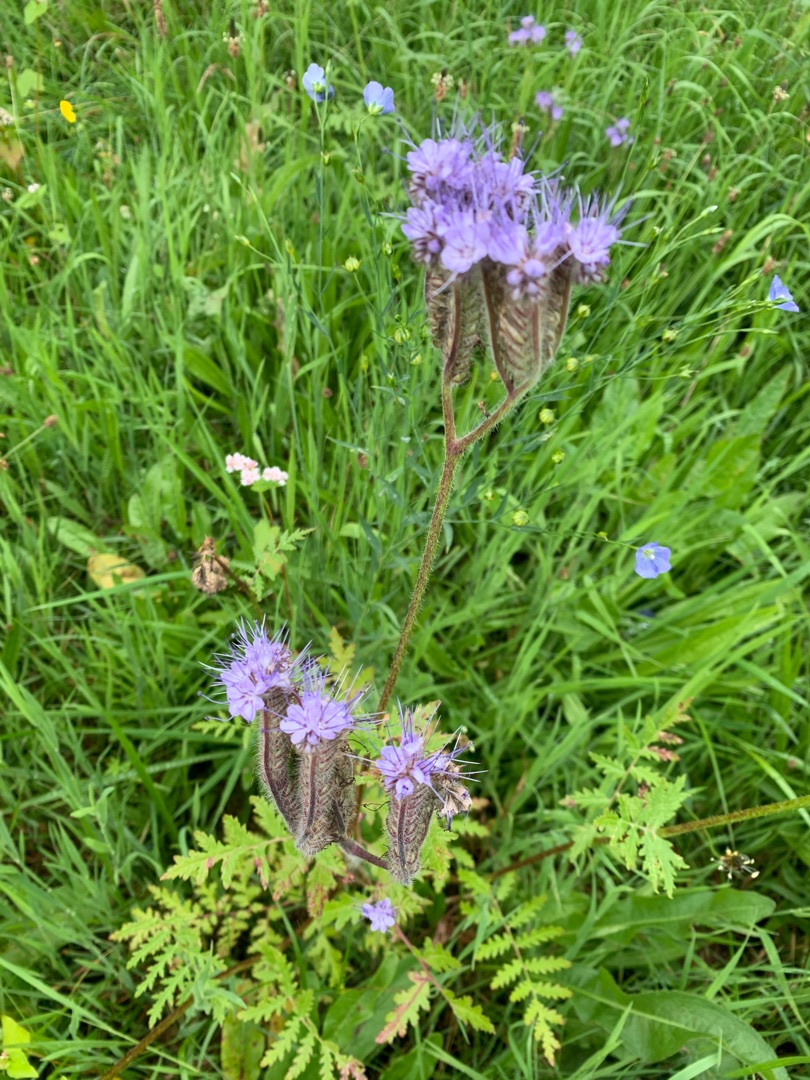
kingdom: Plantae
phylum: Tracheophyta
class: Magnoliopsida
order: Boraginales
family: Hydrophyllaceae
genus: Phacelia
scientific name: Phacelia tanacetifolia
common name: Honningurt
